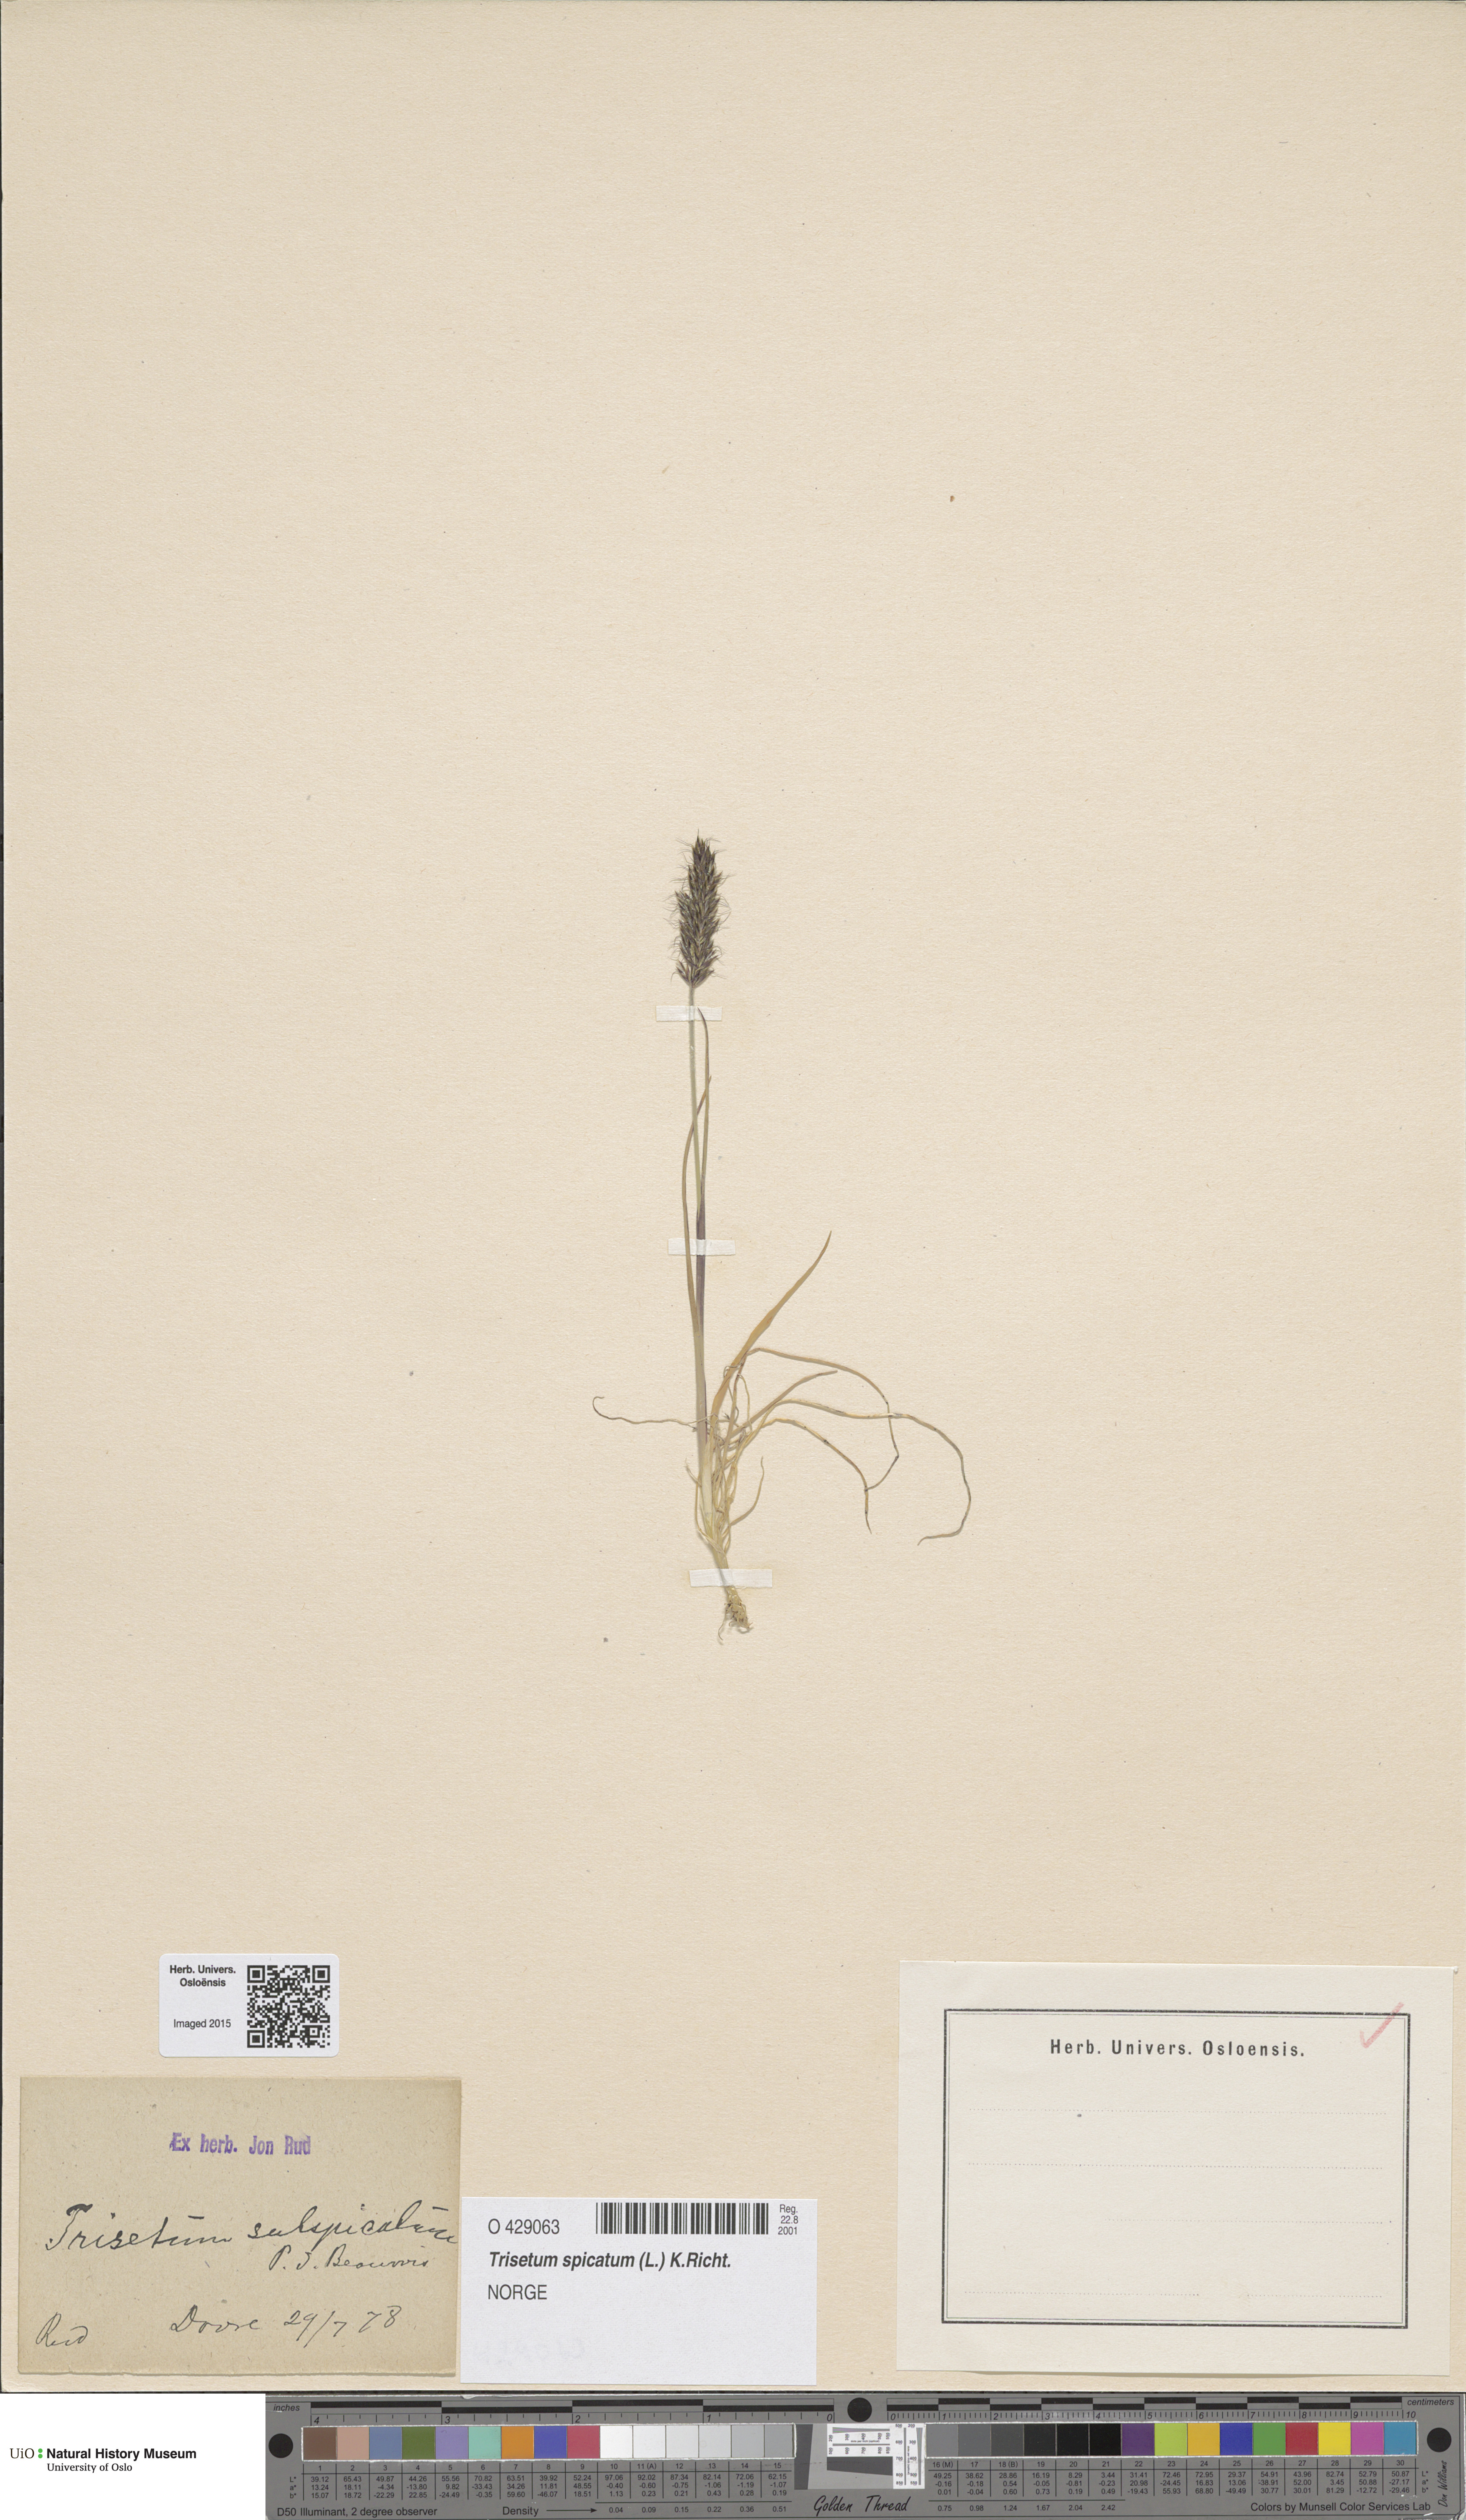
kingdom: Plantae
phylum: Tracheophyta
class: Liliopsida
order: Poales
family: Poaceae
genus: Koeleria
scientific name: Koeleria spicata
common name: Mountain trisetum
